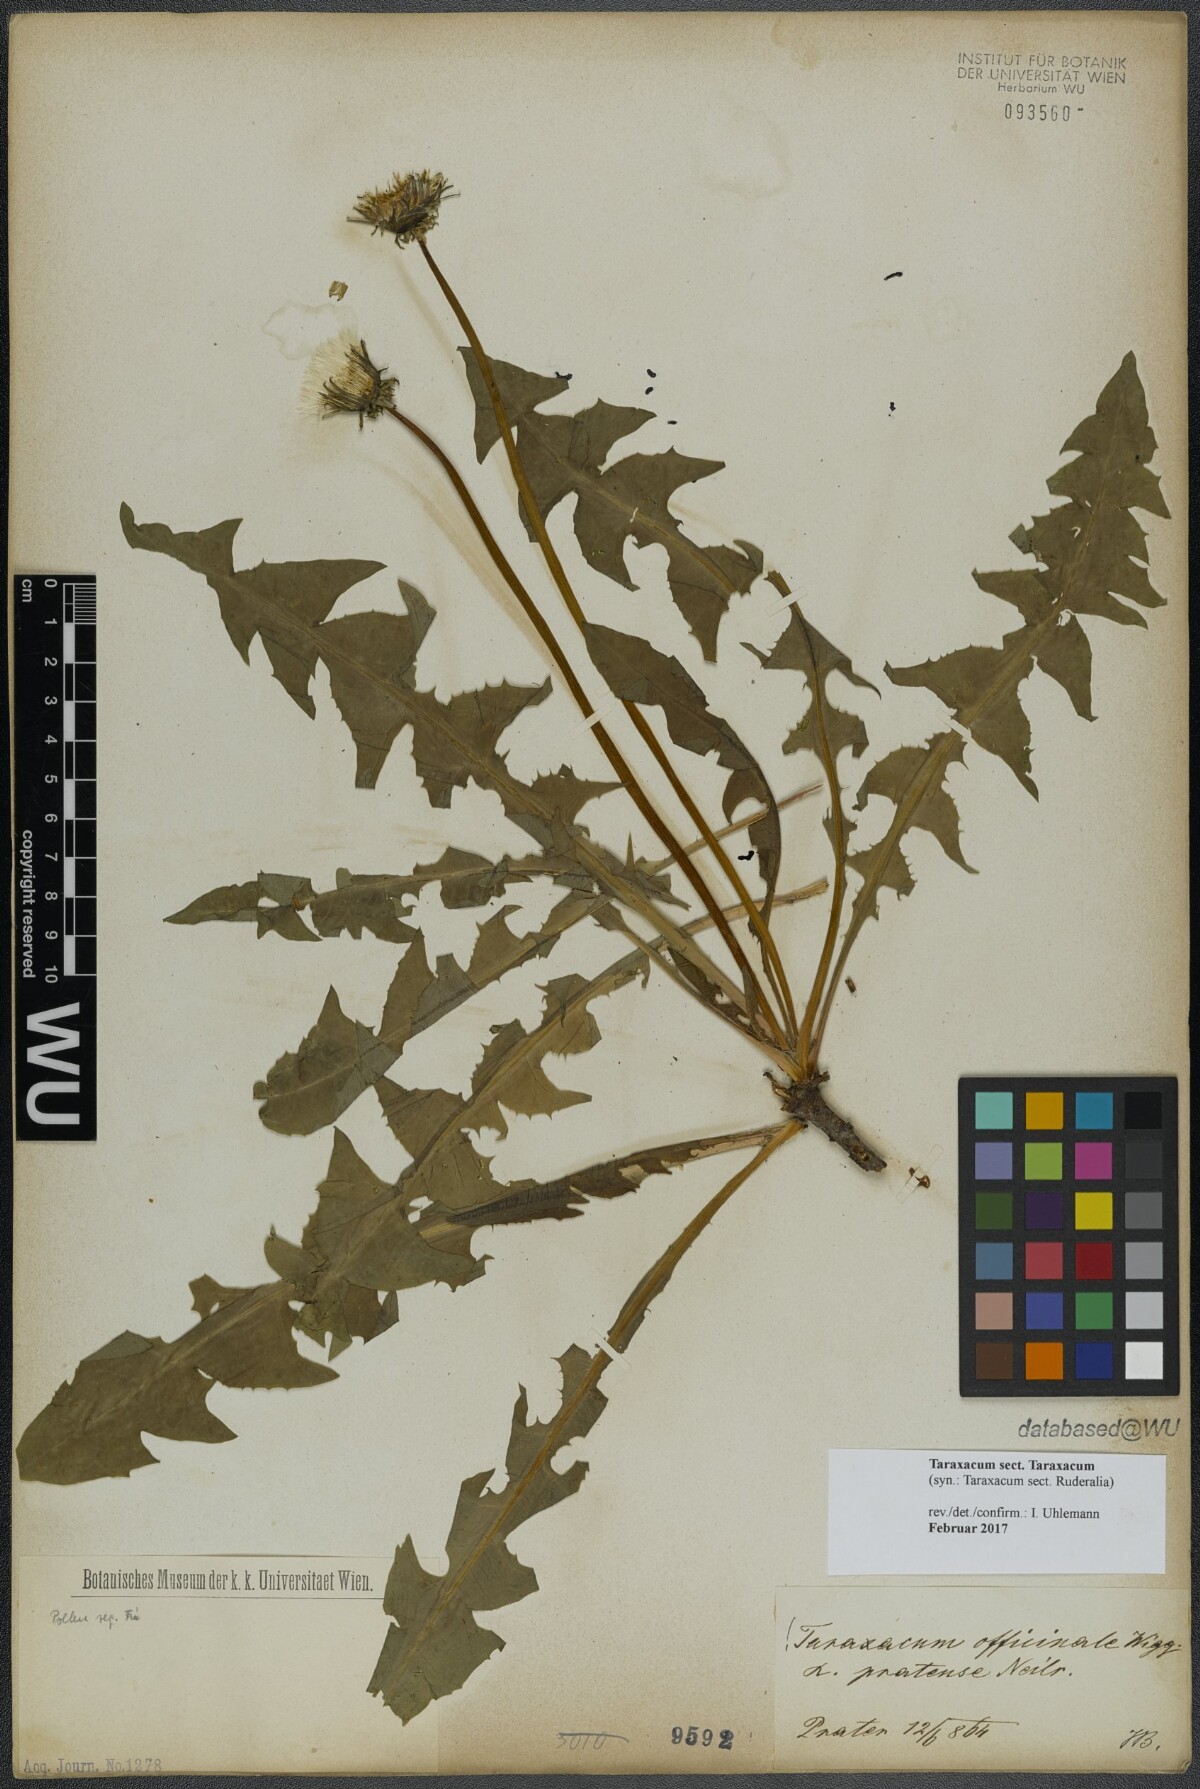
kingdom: Plantae
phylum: Tracheophyta
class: Magnoliopsida
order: Asterales
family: Asteraceae
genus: Taraxacum
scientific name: Taraxacum
